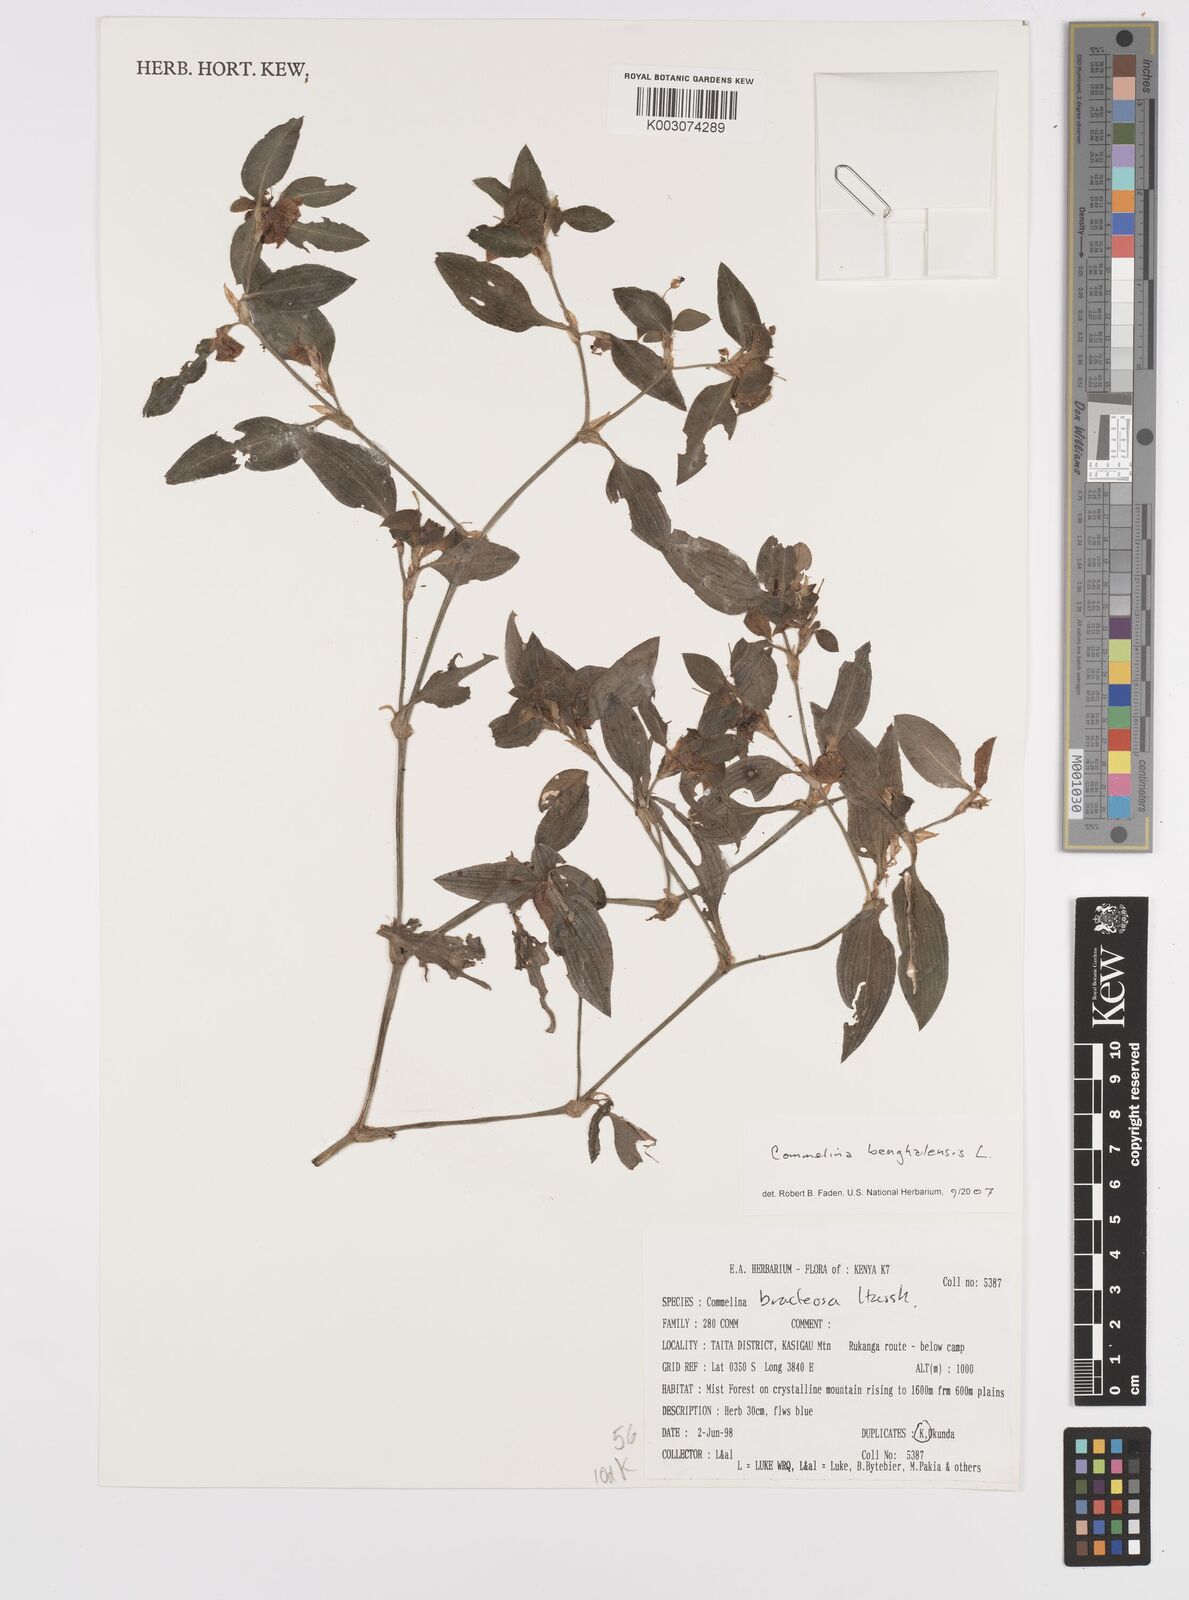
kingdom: Plantae
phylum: Tracheophyta
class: Liliopsida
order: Commelinales
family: Commelinaceae
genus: Commelina
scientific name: Commelina benghalensis
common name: Jio
